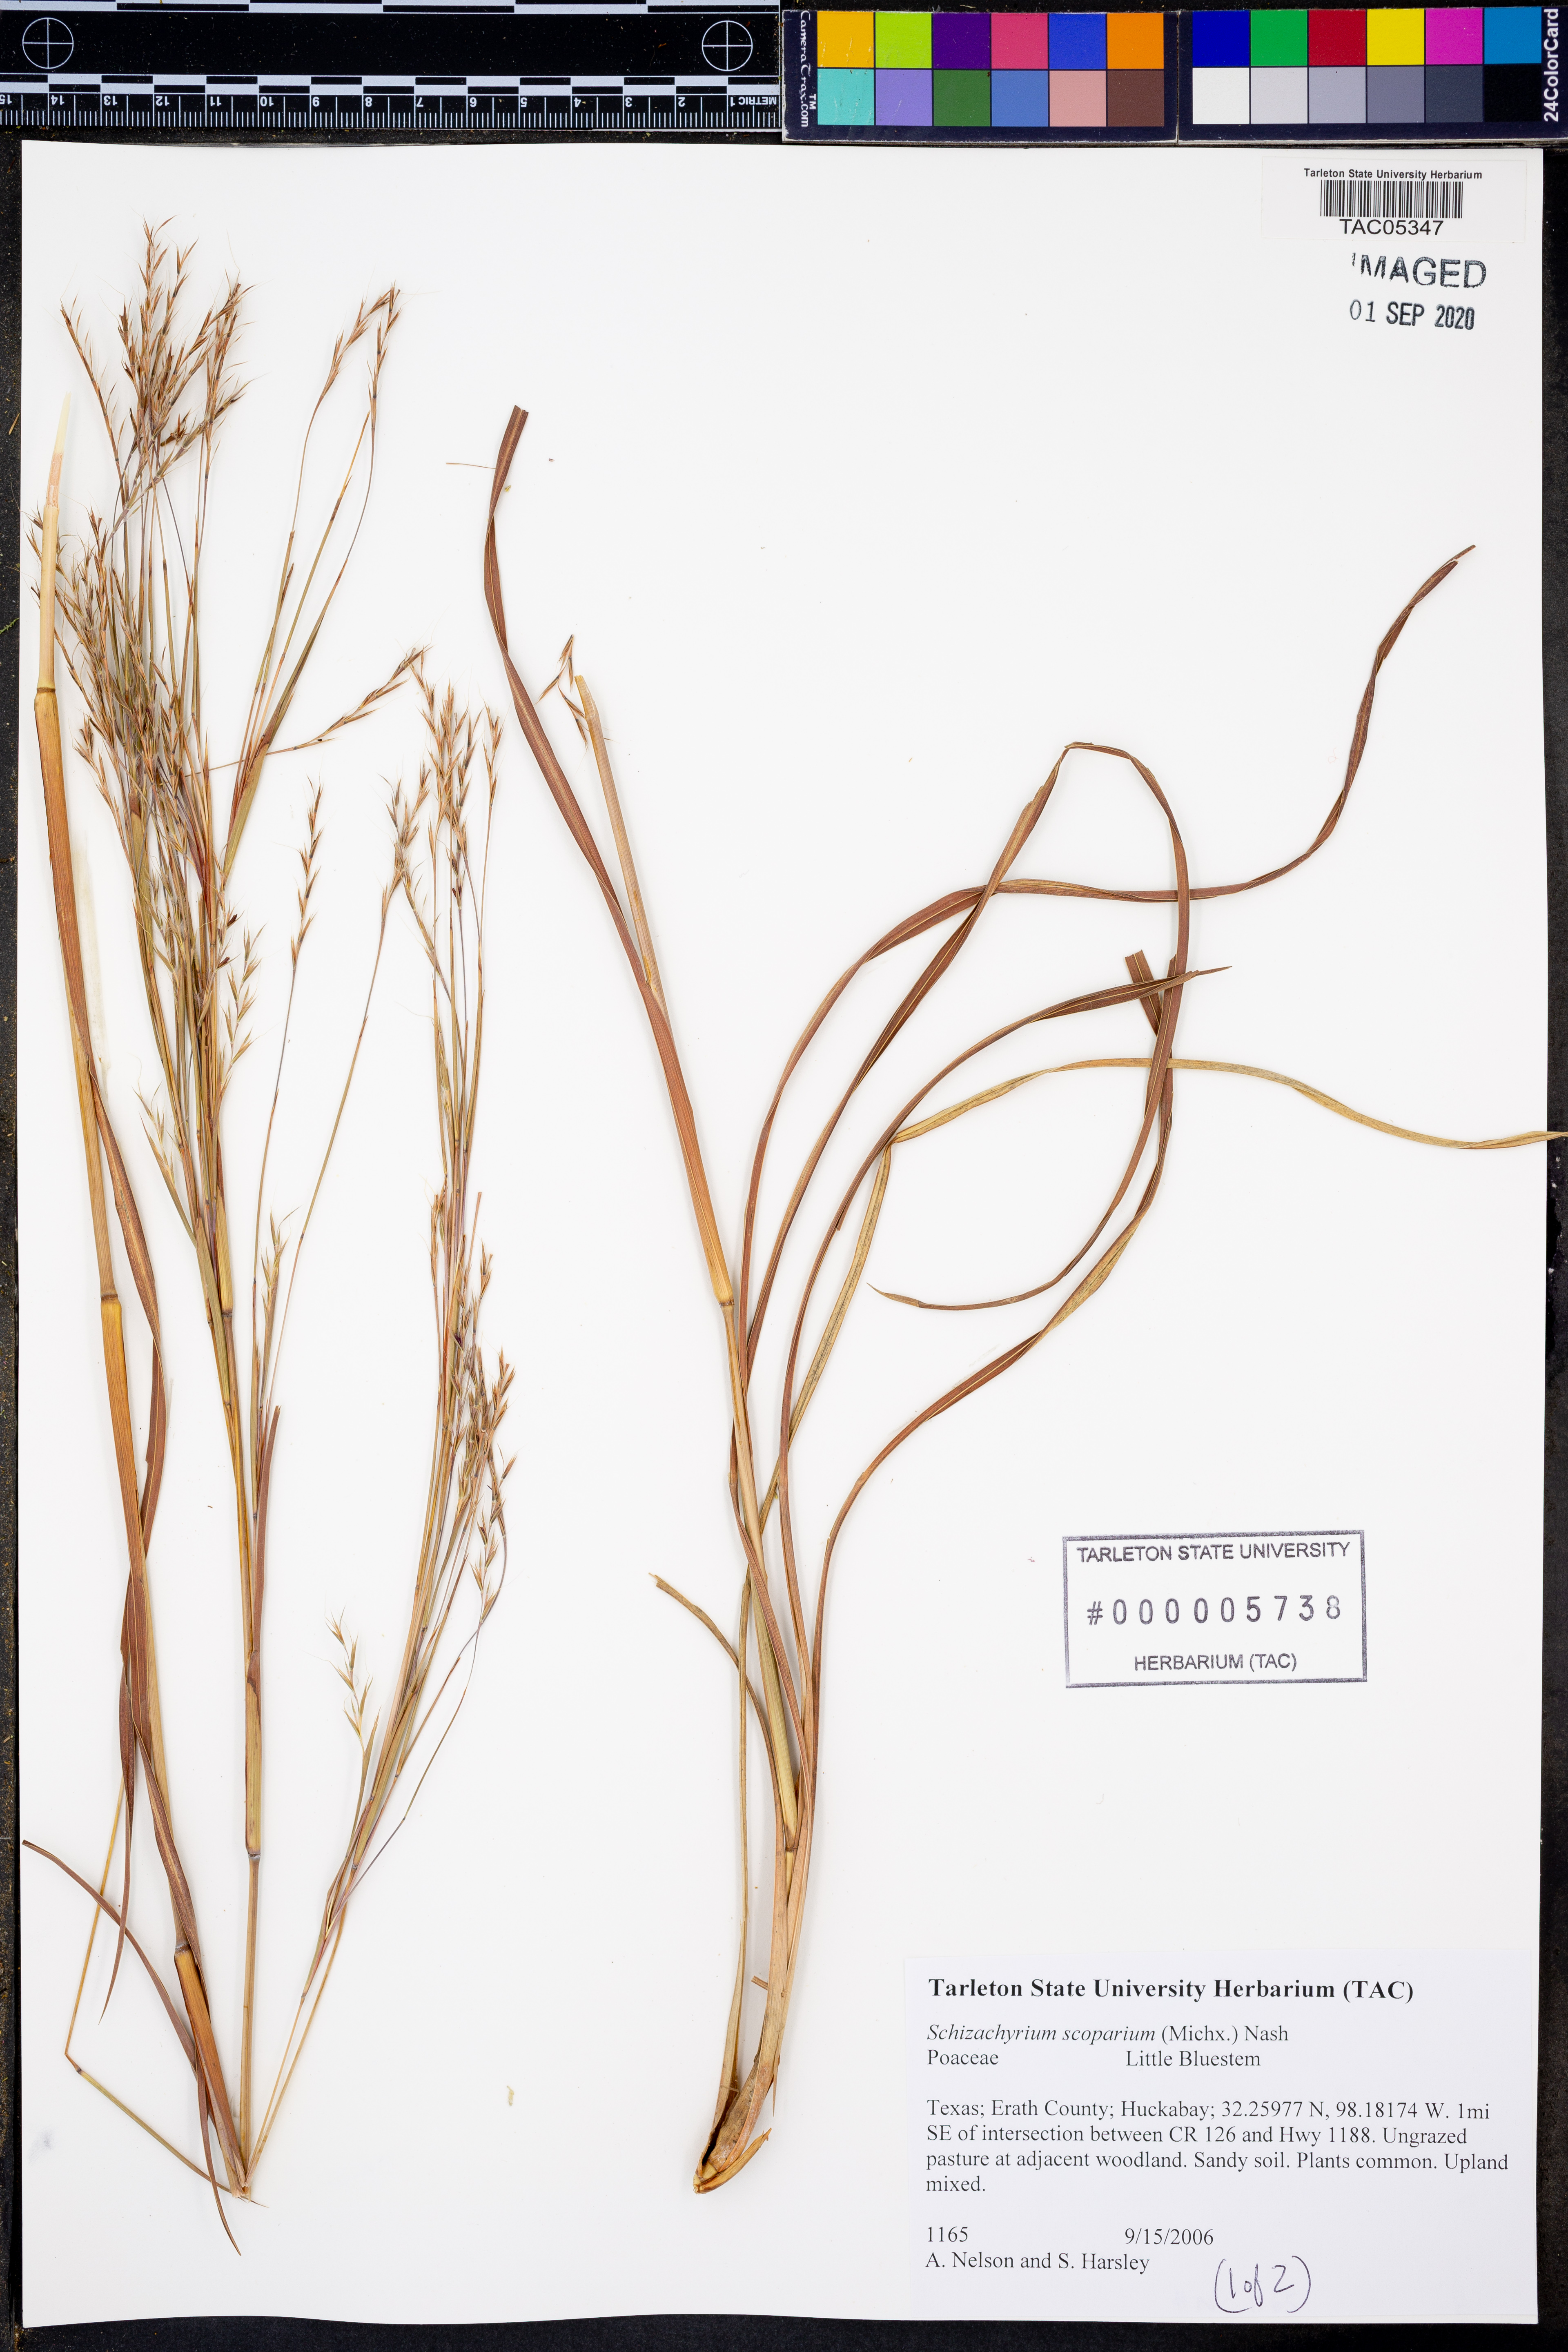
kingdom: Plantae
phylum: Tracheophyta
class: Liliopsida
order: Poales
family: Poaceae
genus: Schizachyrium
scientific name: Schizachyrium scoparium
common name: Little bluestem
